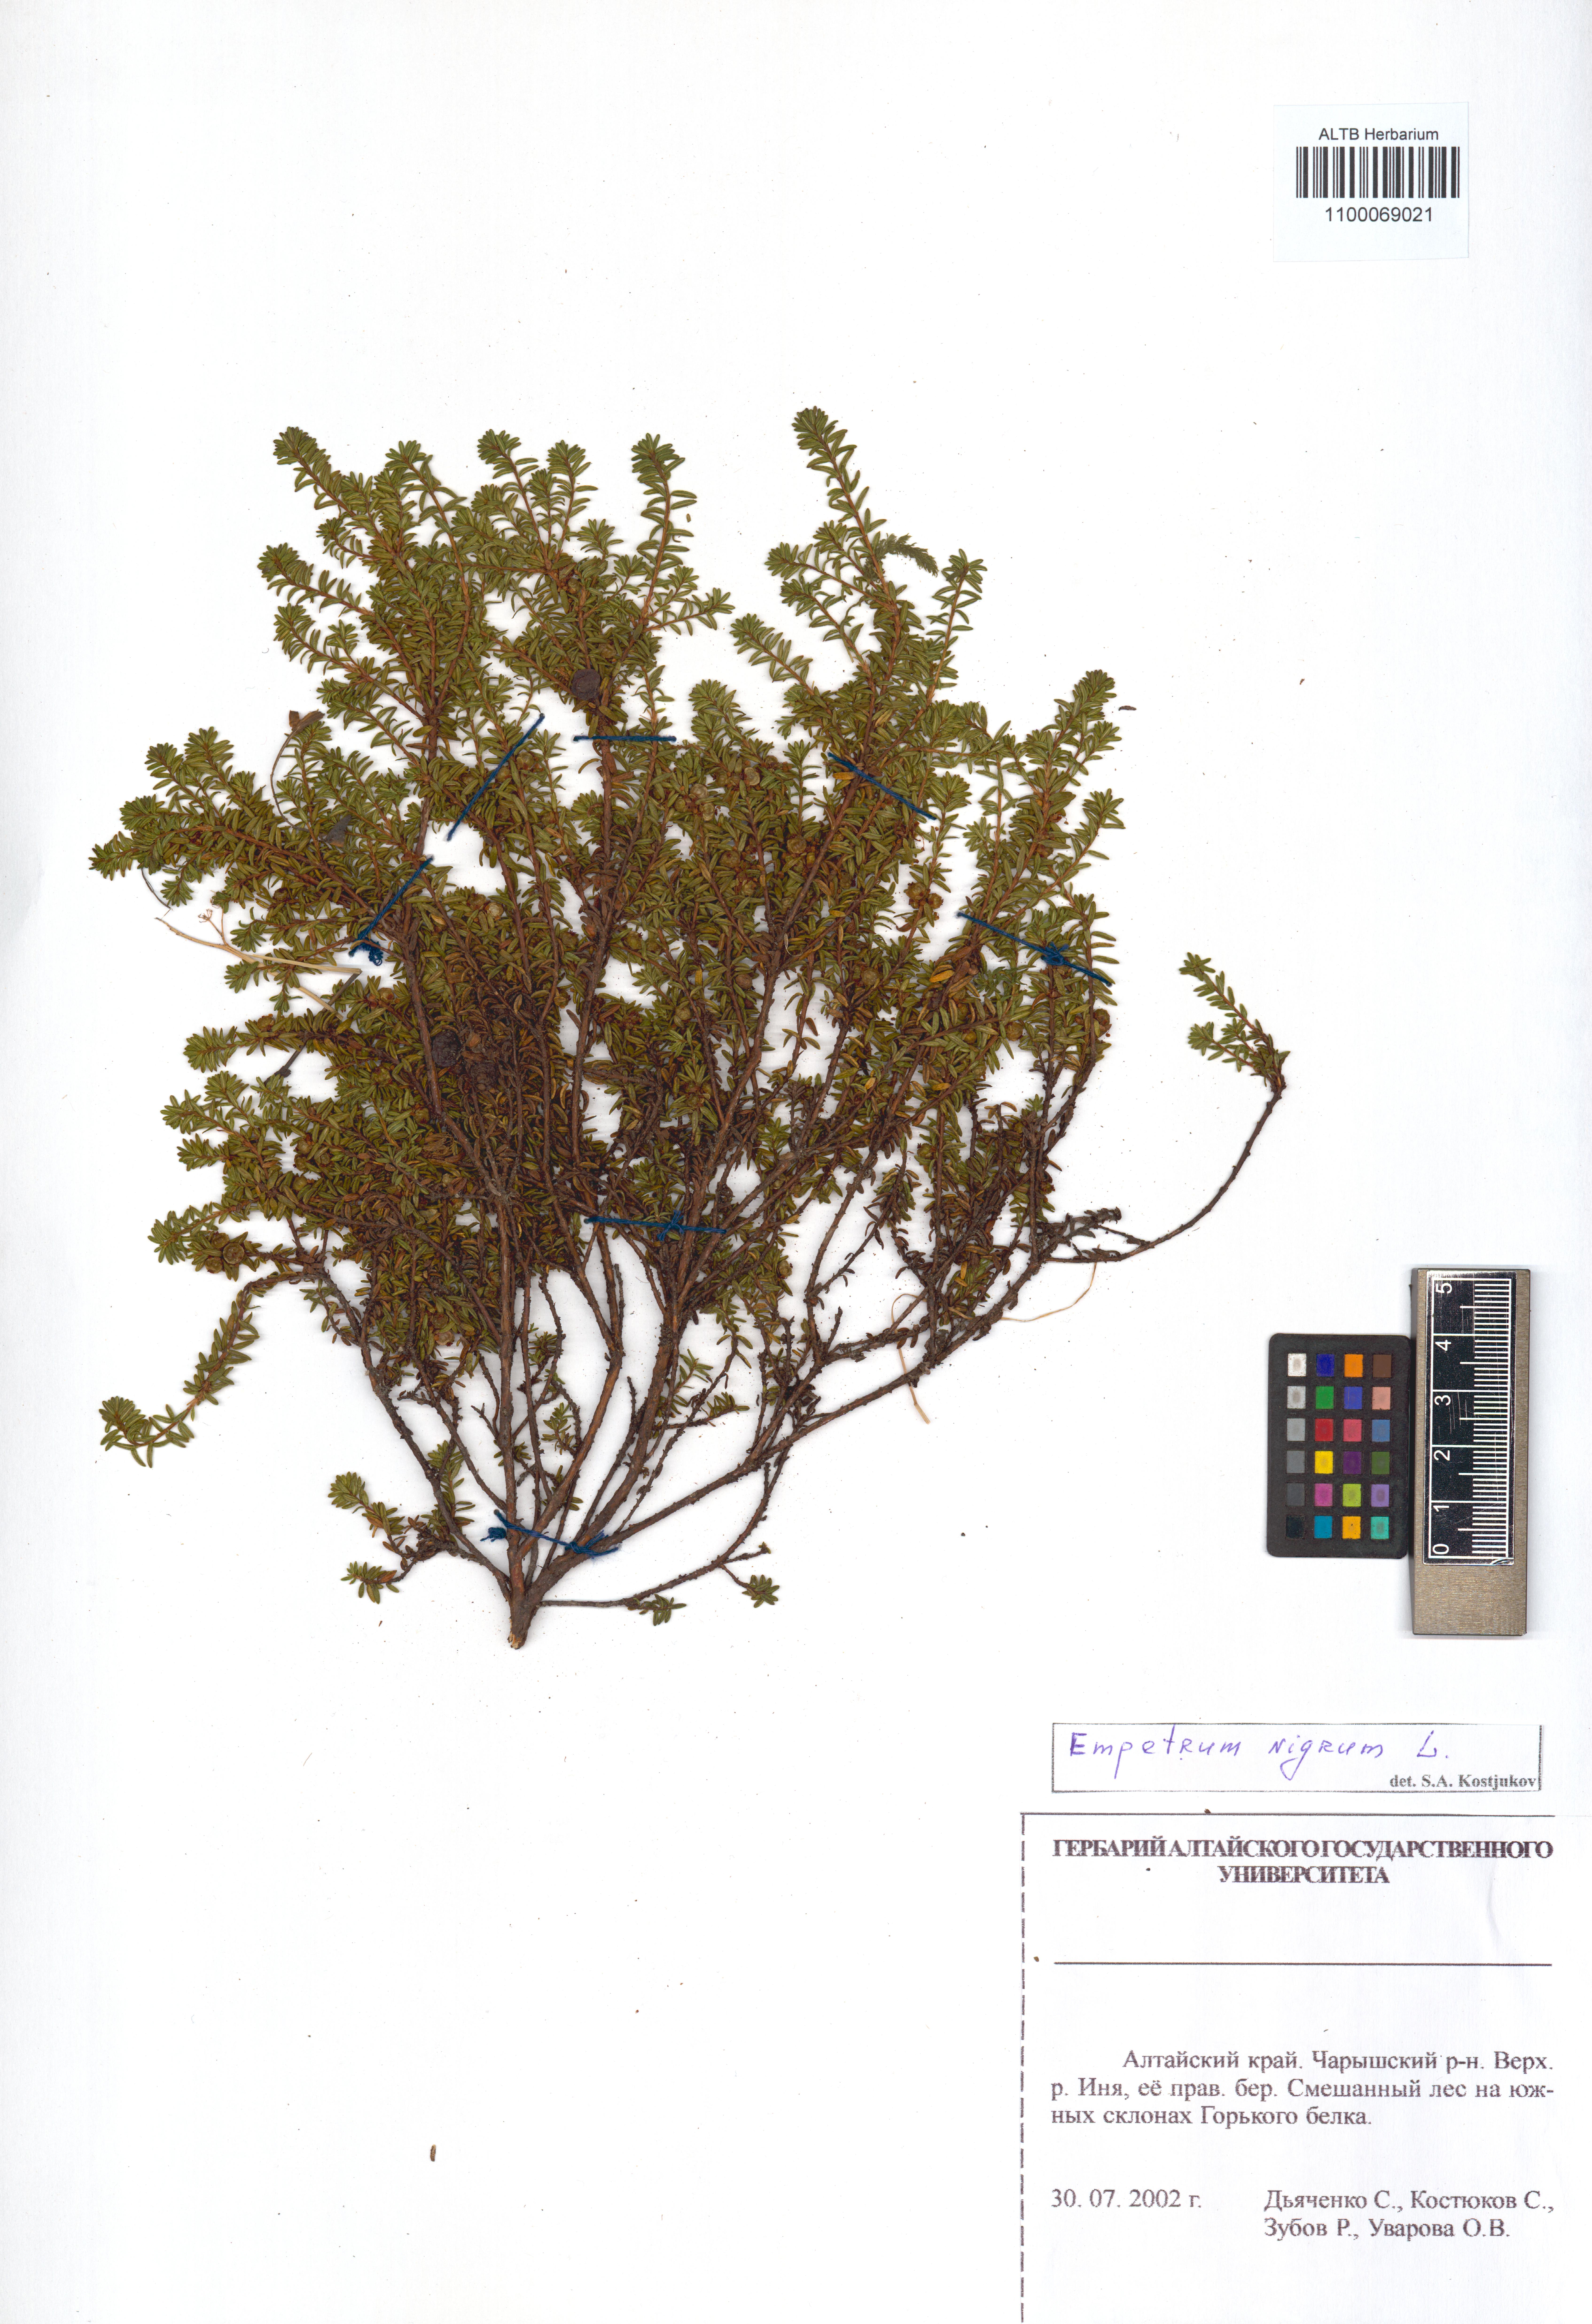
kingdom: Plantae
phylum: Tracheophyta
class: Magnoliopsida
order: Ericales
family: Ericaceae
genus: Empetrum
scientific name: Empetrum nigrum
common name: Black crowberry
